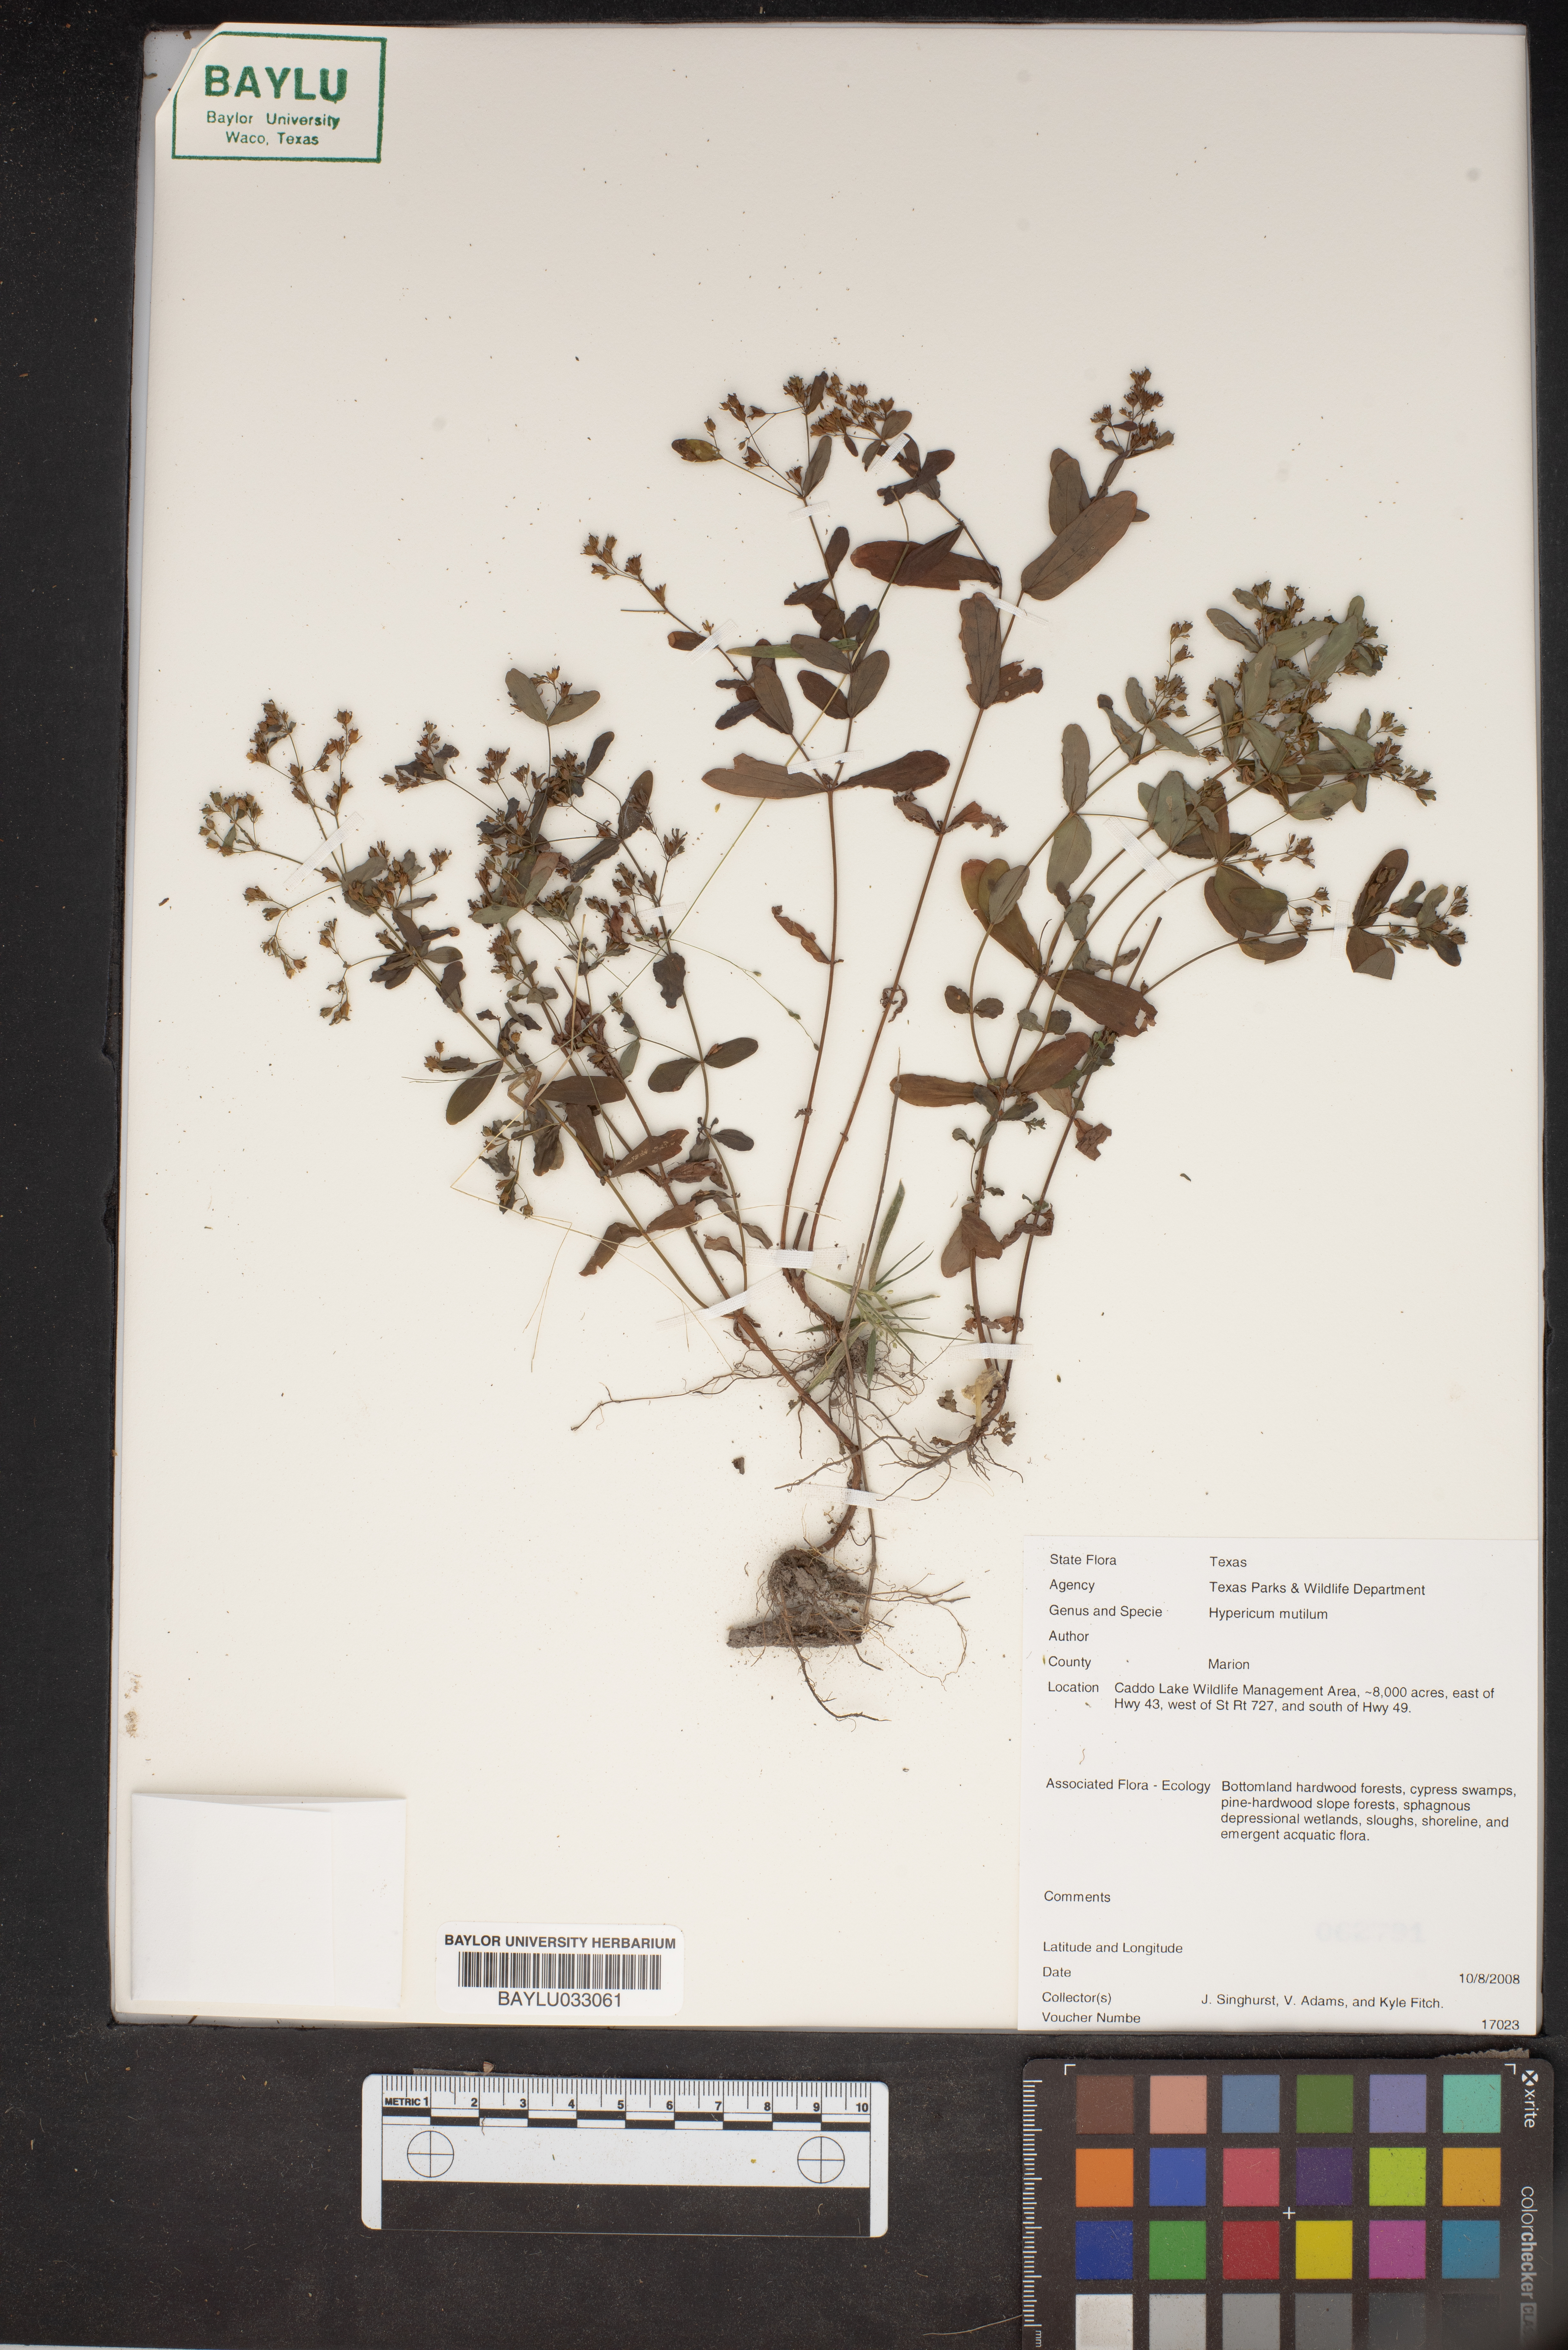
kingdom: Plantae
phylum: Tracheophyta
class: Magnoliopsida
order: Malpighiales
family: Hypericaceae
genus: Hypericum
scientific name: Hypericum mutilum
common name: Dwarf st. john's-wort
